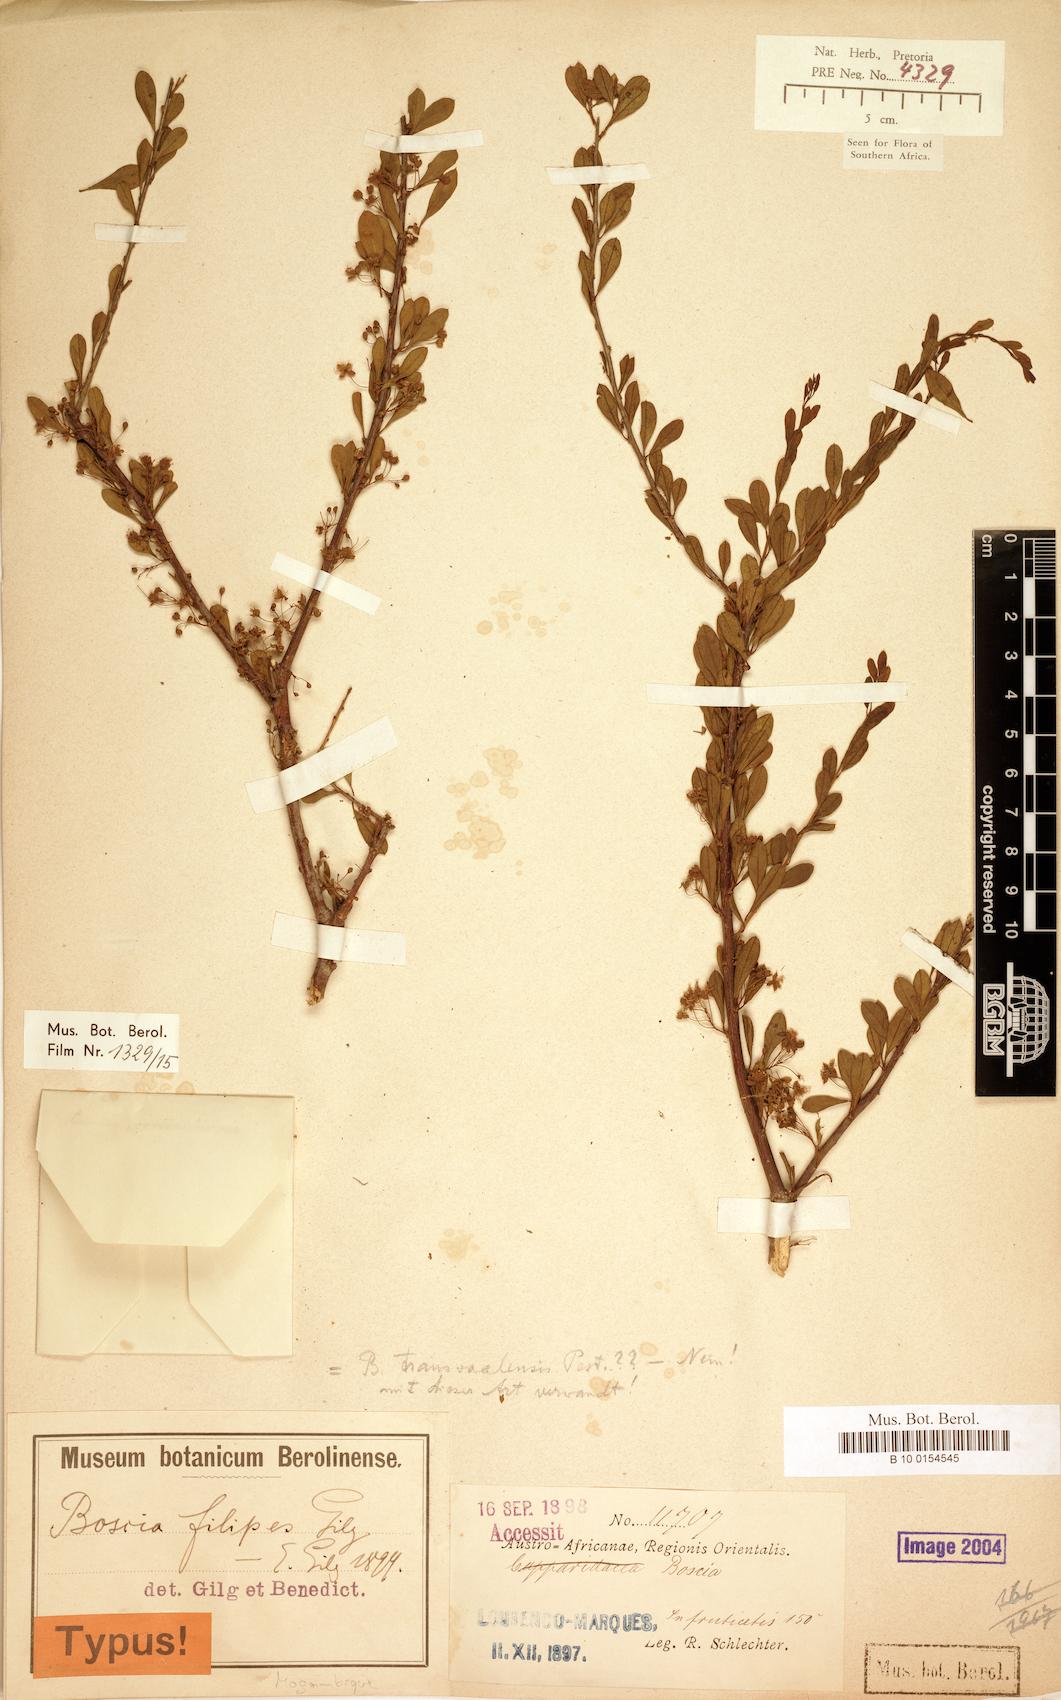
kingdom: Plantae
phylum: Tracheophyta
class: Magnoliopsida
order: Brassicales
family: Capparaceae
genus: Boscia
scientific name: Boscia foetida
